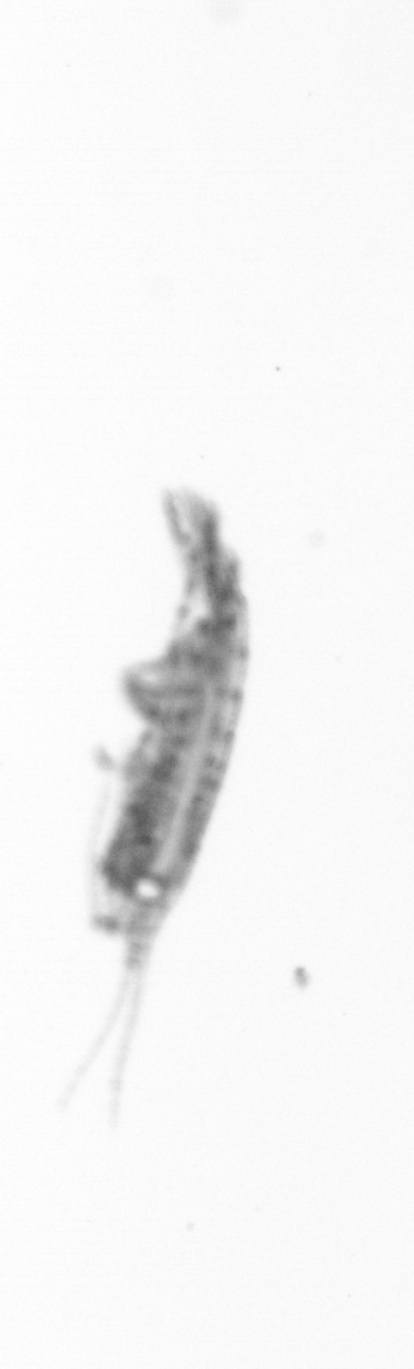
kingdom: Animalia
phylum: Arthropoda
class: Copepoda
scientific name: Copepoda
